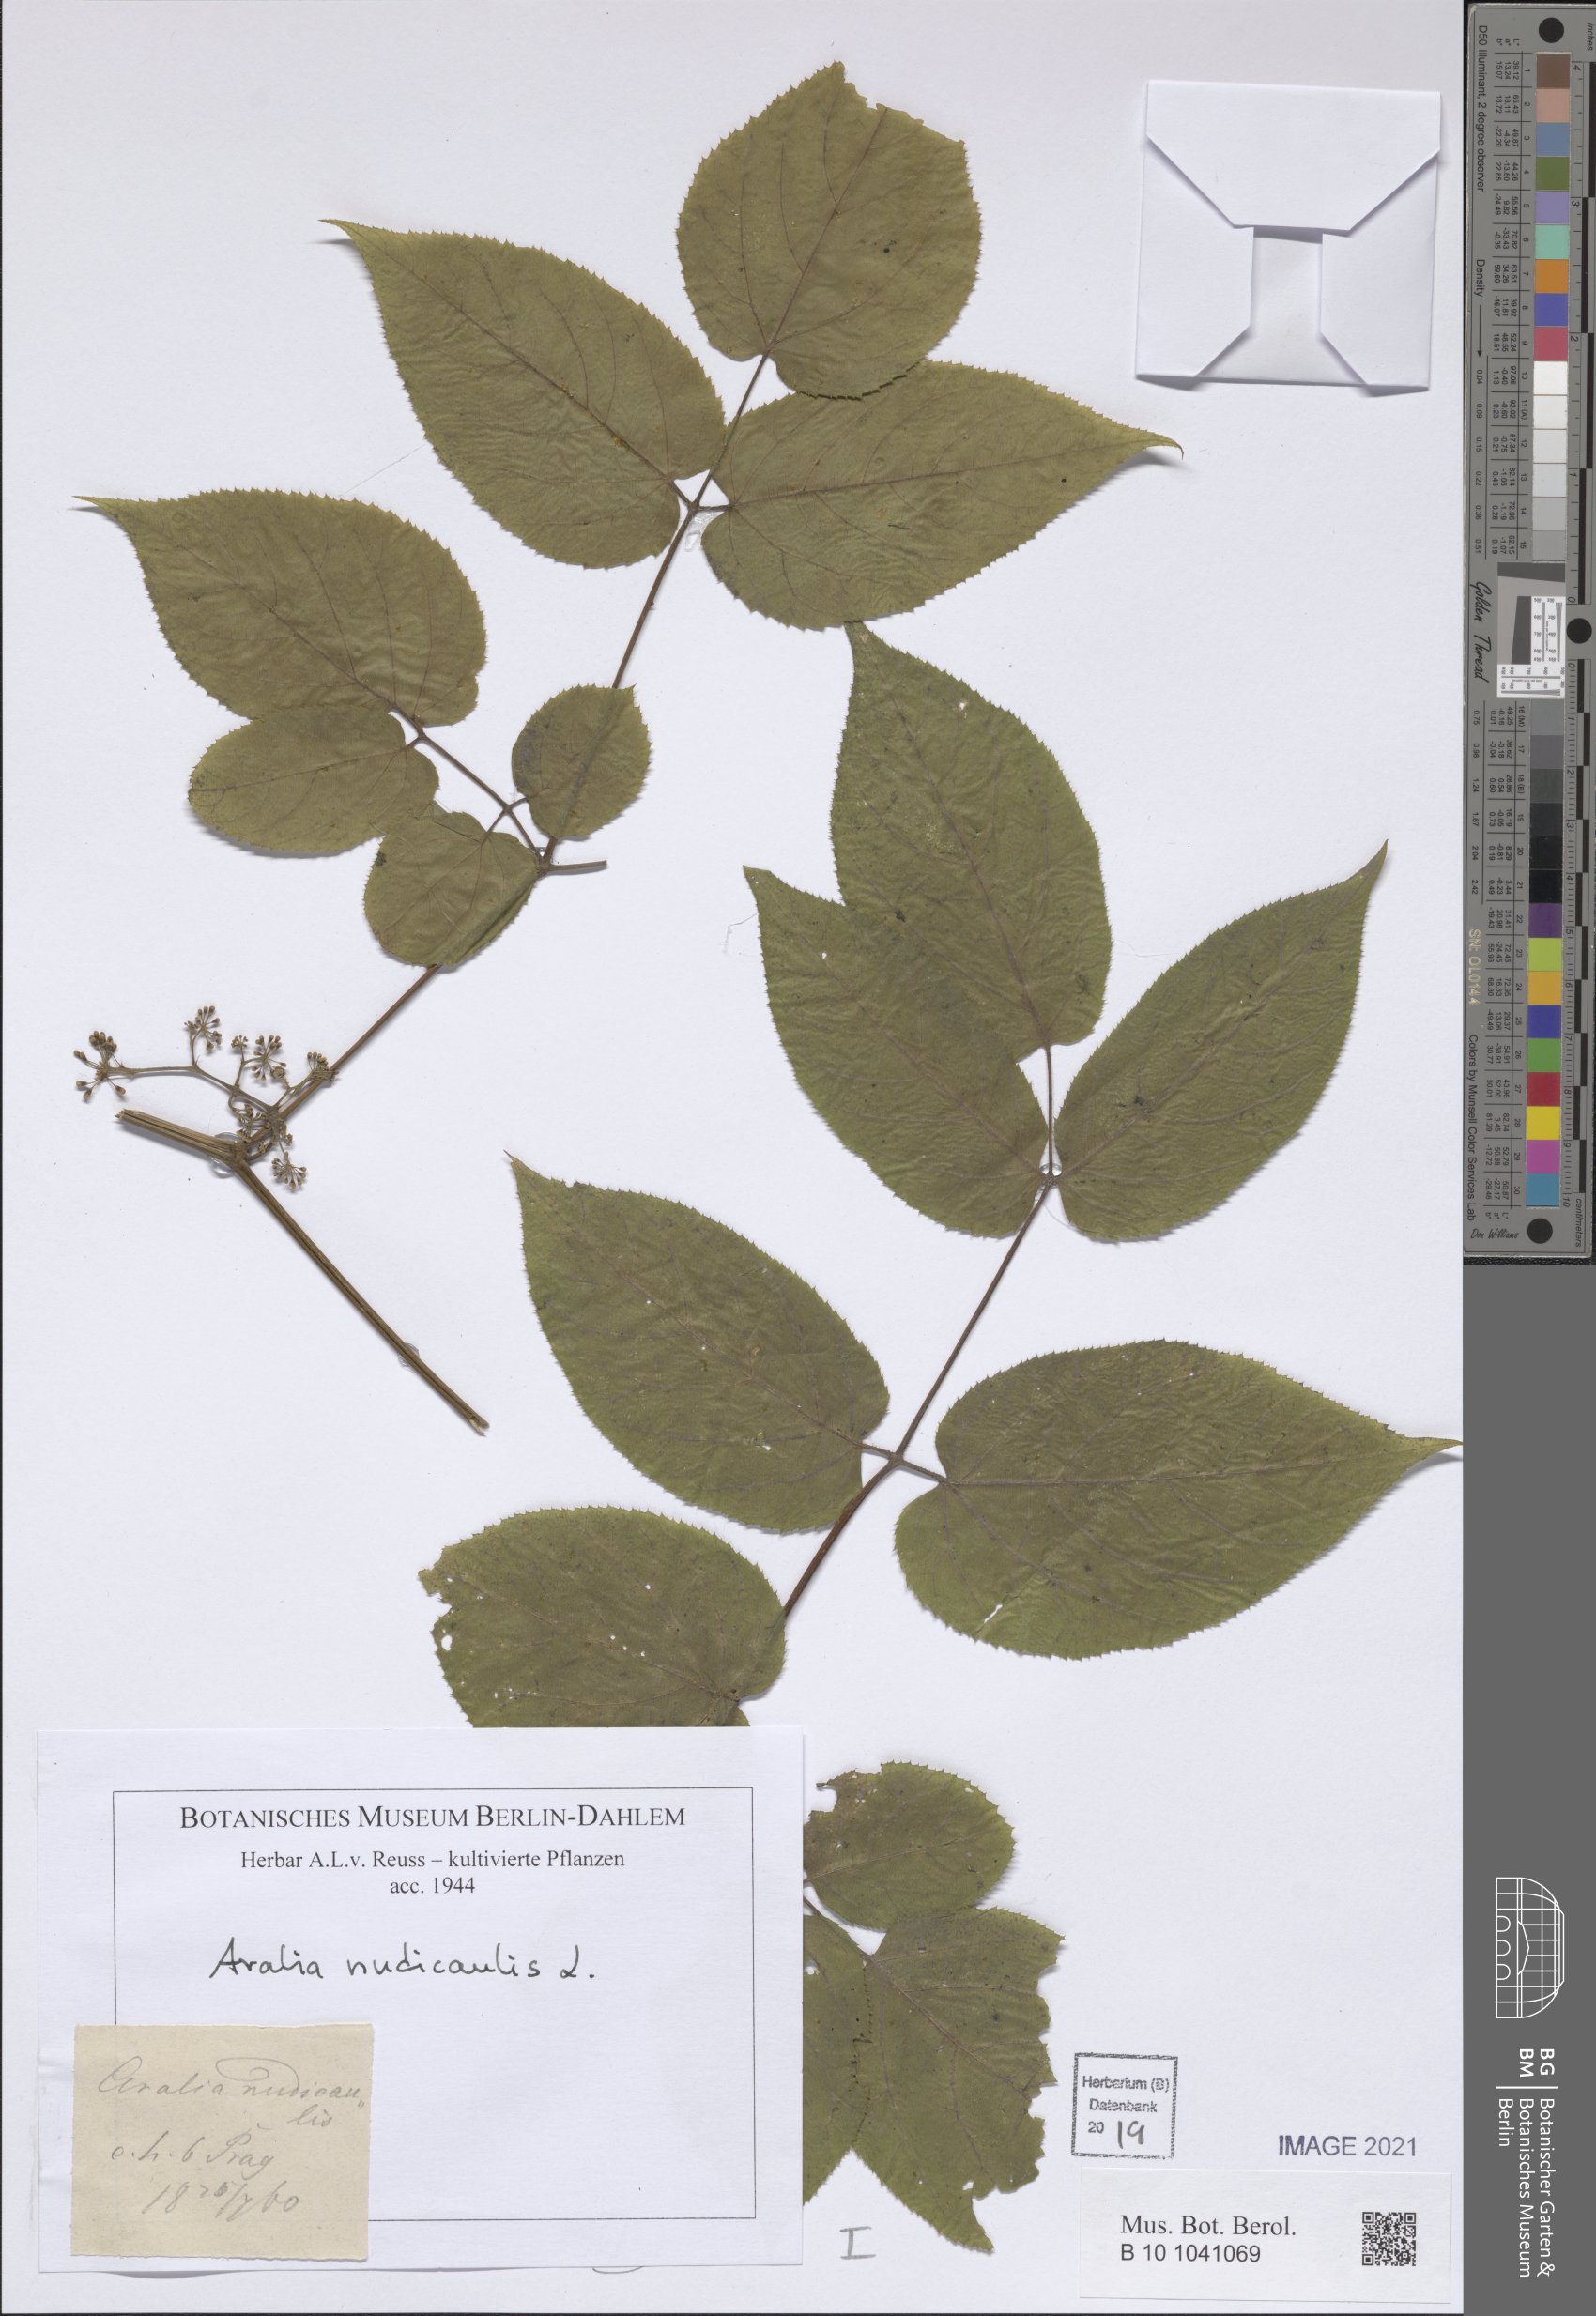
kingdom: Plantae
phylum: Tracheophyta
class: Magnoliopsida
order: Apiales
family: Araliaceae
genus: Aralia
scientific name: Aralia nudicaulis
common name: Wild sarsaparilla
